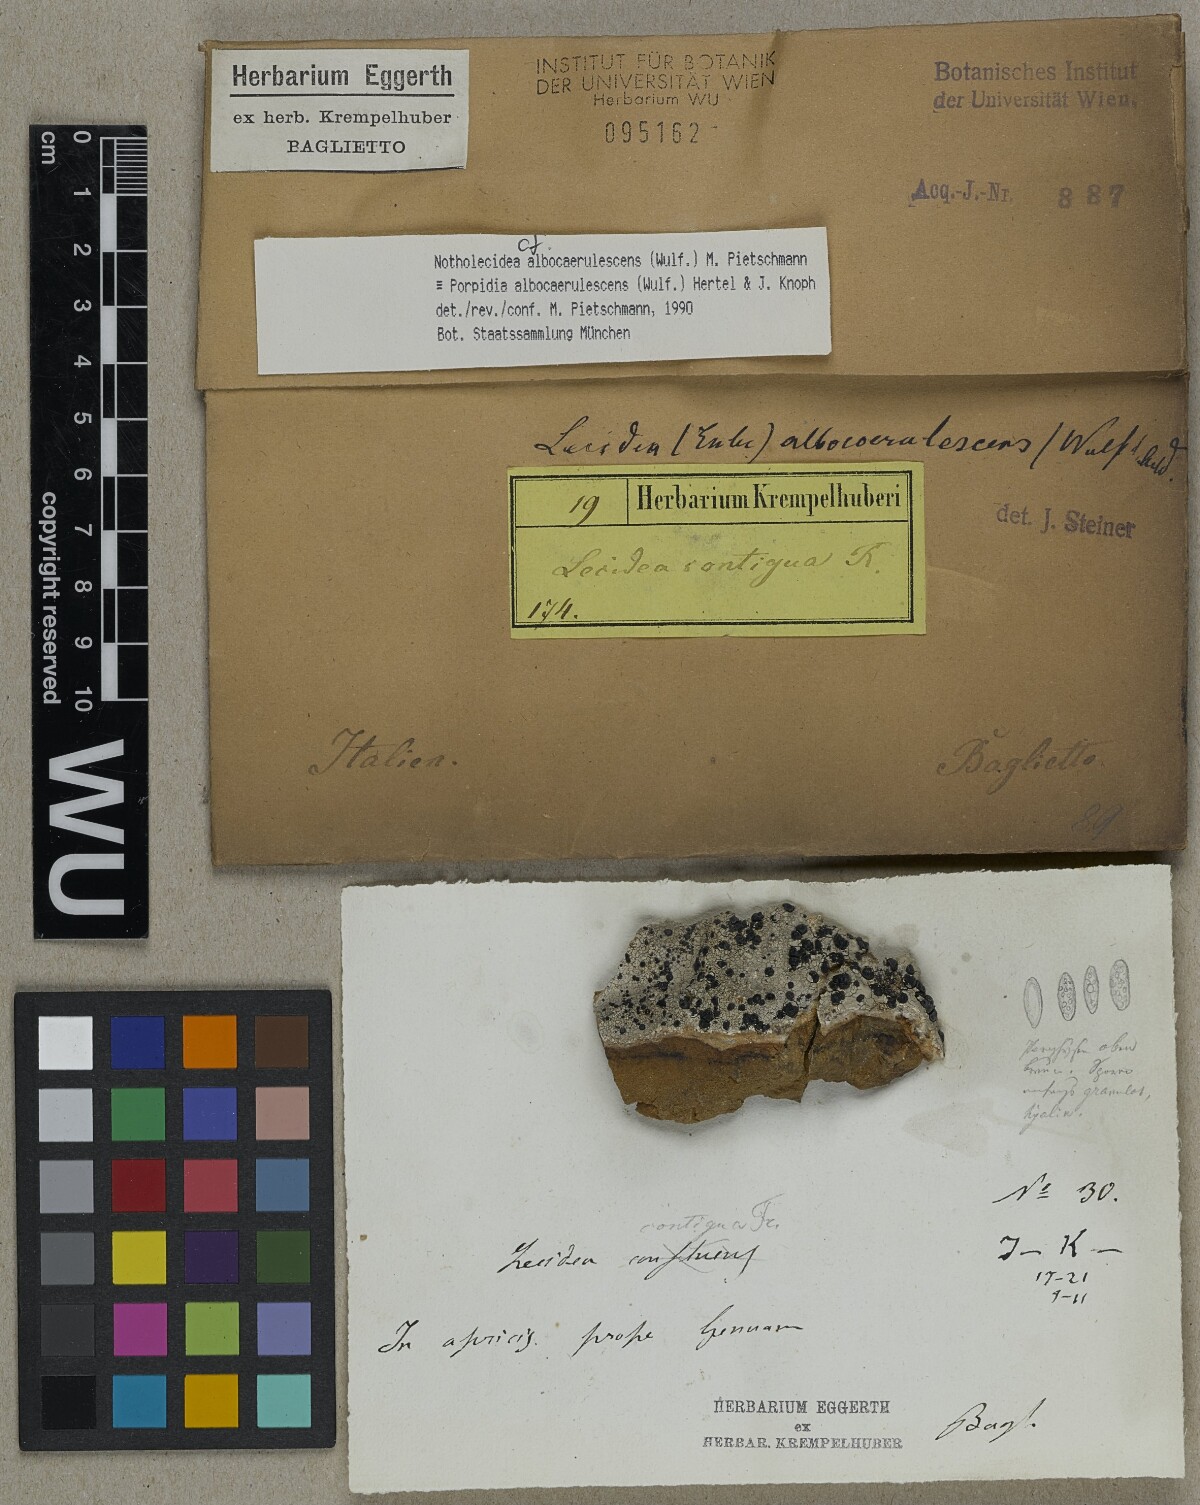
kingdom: Fungi
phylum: Ascomycota
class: Lecanoromycetes
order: Lecideales
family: Lecideaceae
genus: Porpidia
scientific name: Porpidia albocaerulescens
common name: Smokey-eyed boulder lichen
